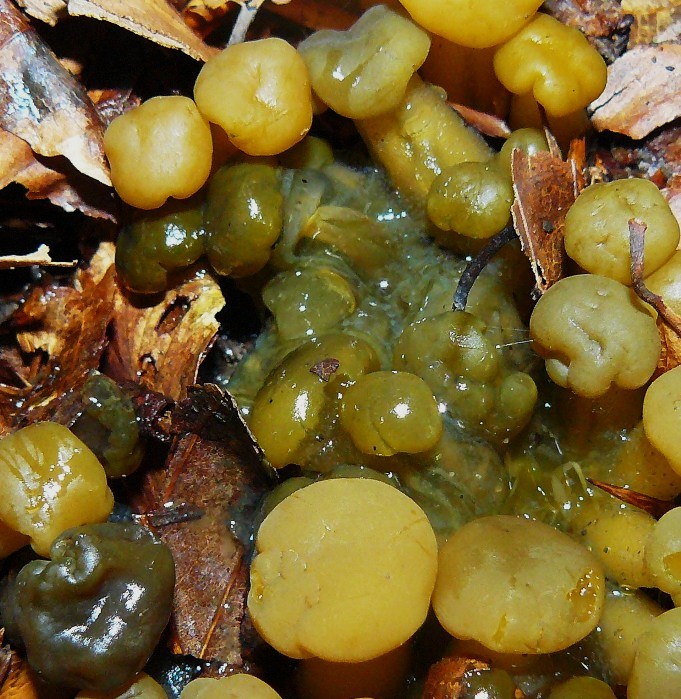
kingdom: Fungi
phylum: Ascomycota
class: Sordariomycetes
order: Hypocreales
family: Hypocreaceae
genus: Hypomyces
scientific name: Hypomyces leotiicola
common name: ravsvamp-snylteskorpe
